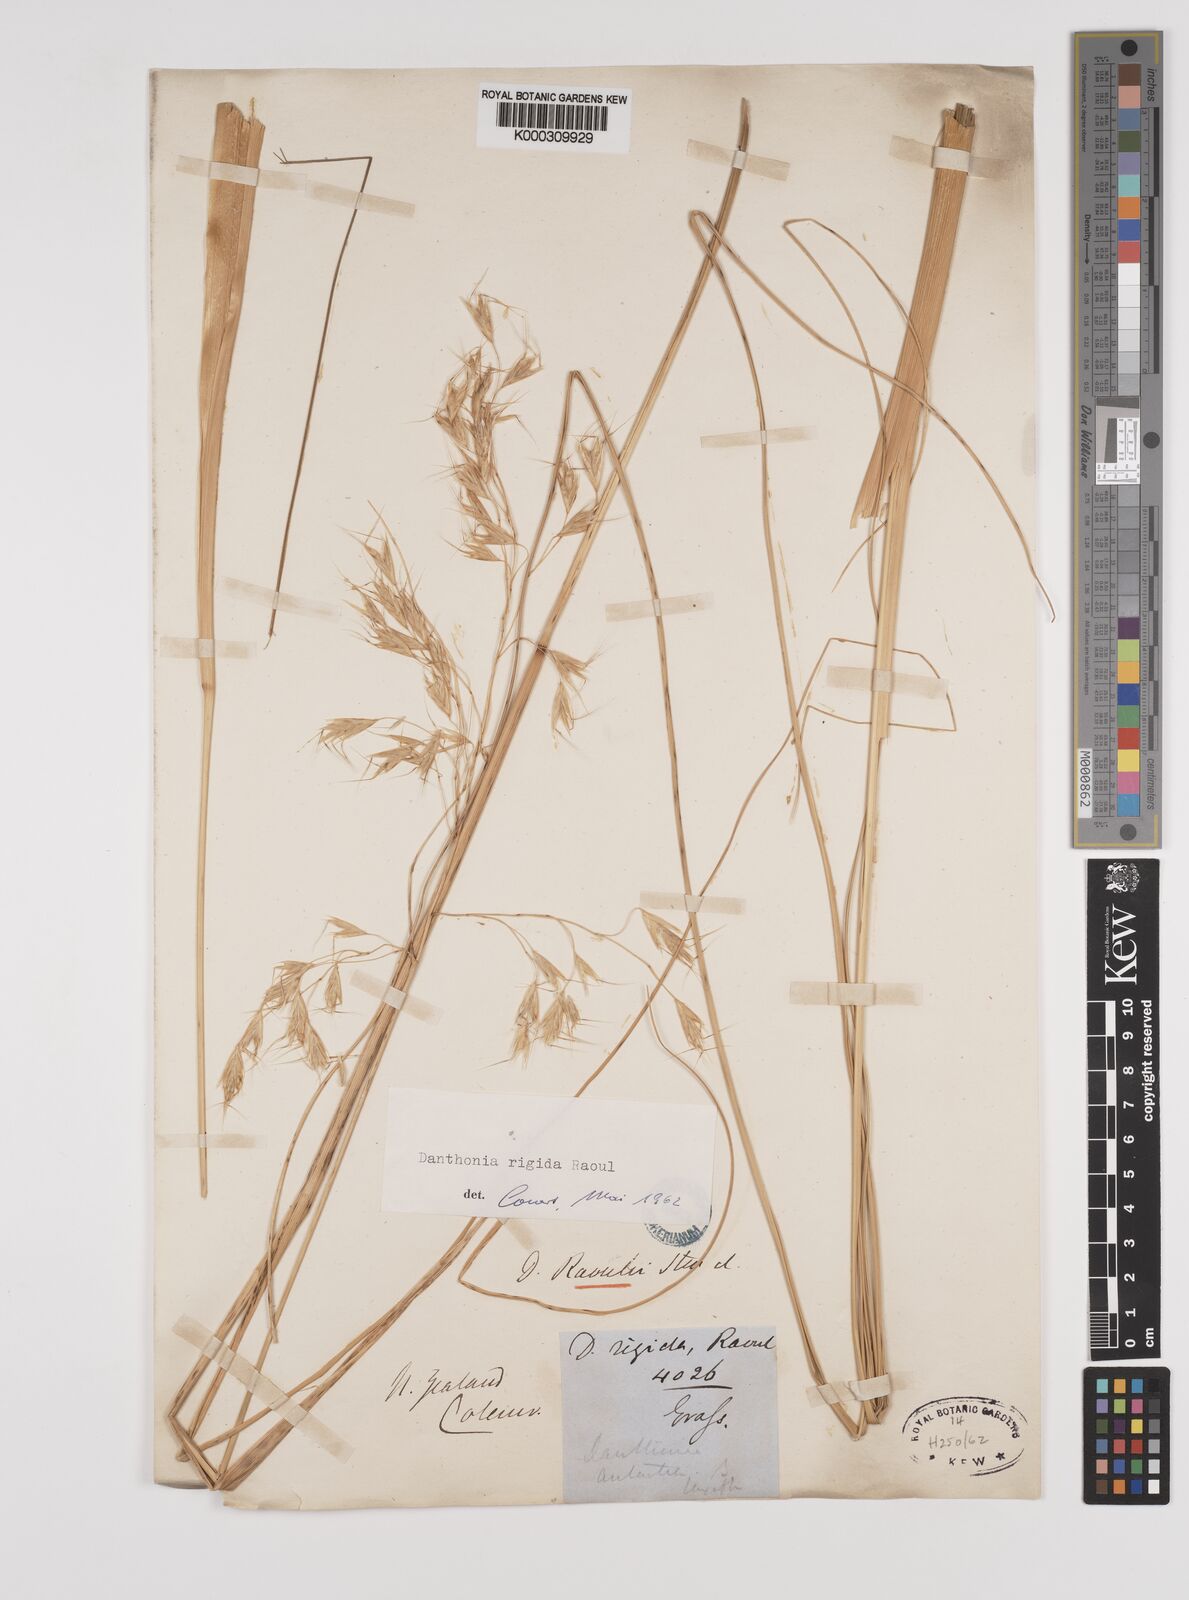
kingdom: Plantae
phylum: Tracheophyta
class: Liliopsida
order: Poales
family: Poaceae
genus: Chionochloa
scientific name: Chionochloa rigida
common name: Narrow leaved snow tussock
